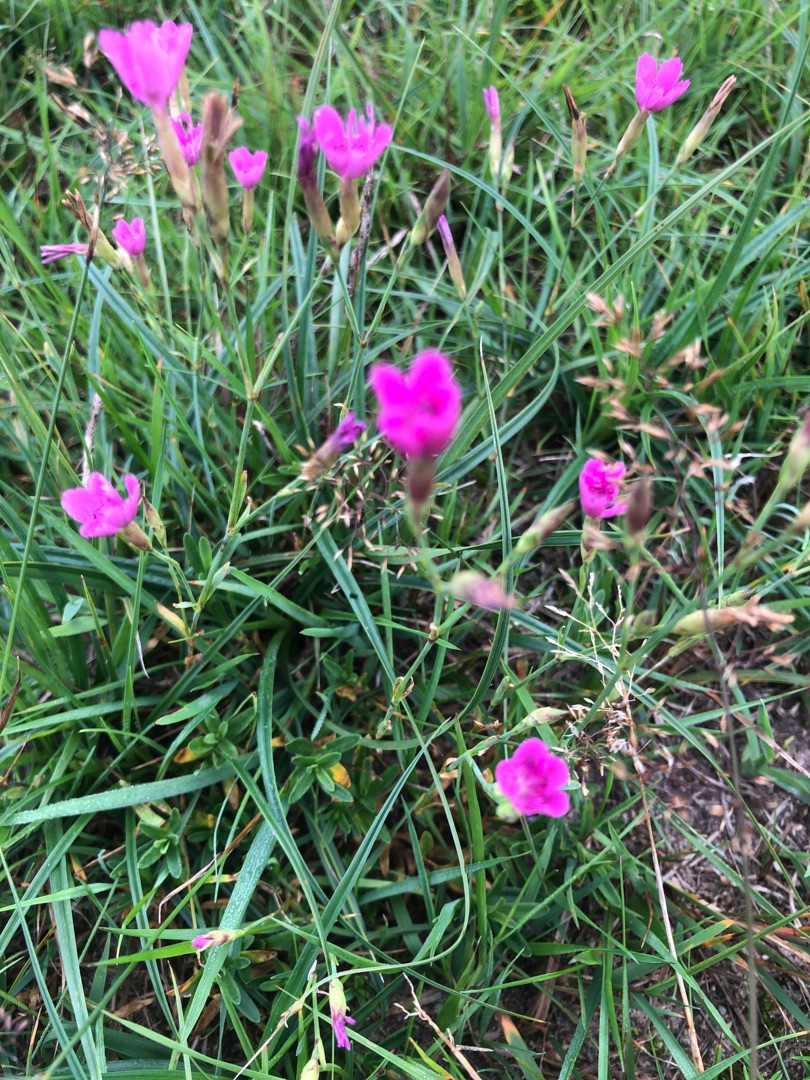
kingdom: Plantae
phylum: Tracheophyta
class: Magnoliopsida
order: Caryophyllales
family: Caryophyllaceae
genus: Dianthus
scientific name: Dianthus deltoides
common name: Bakke-nellike
